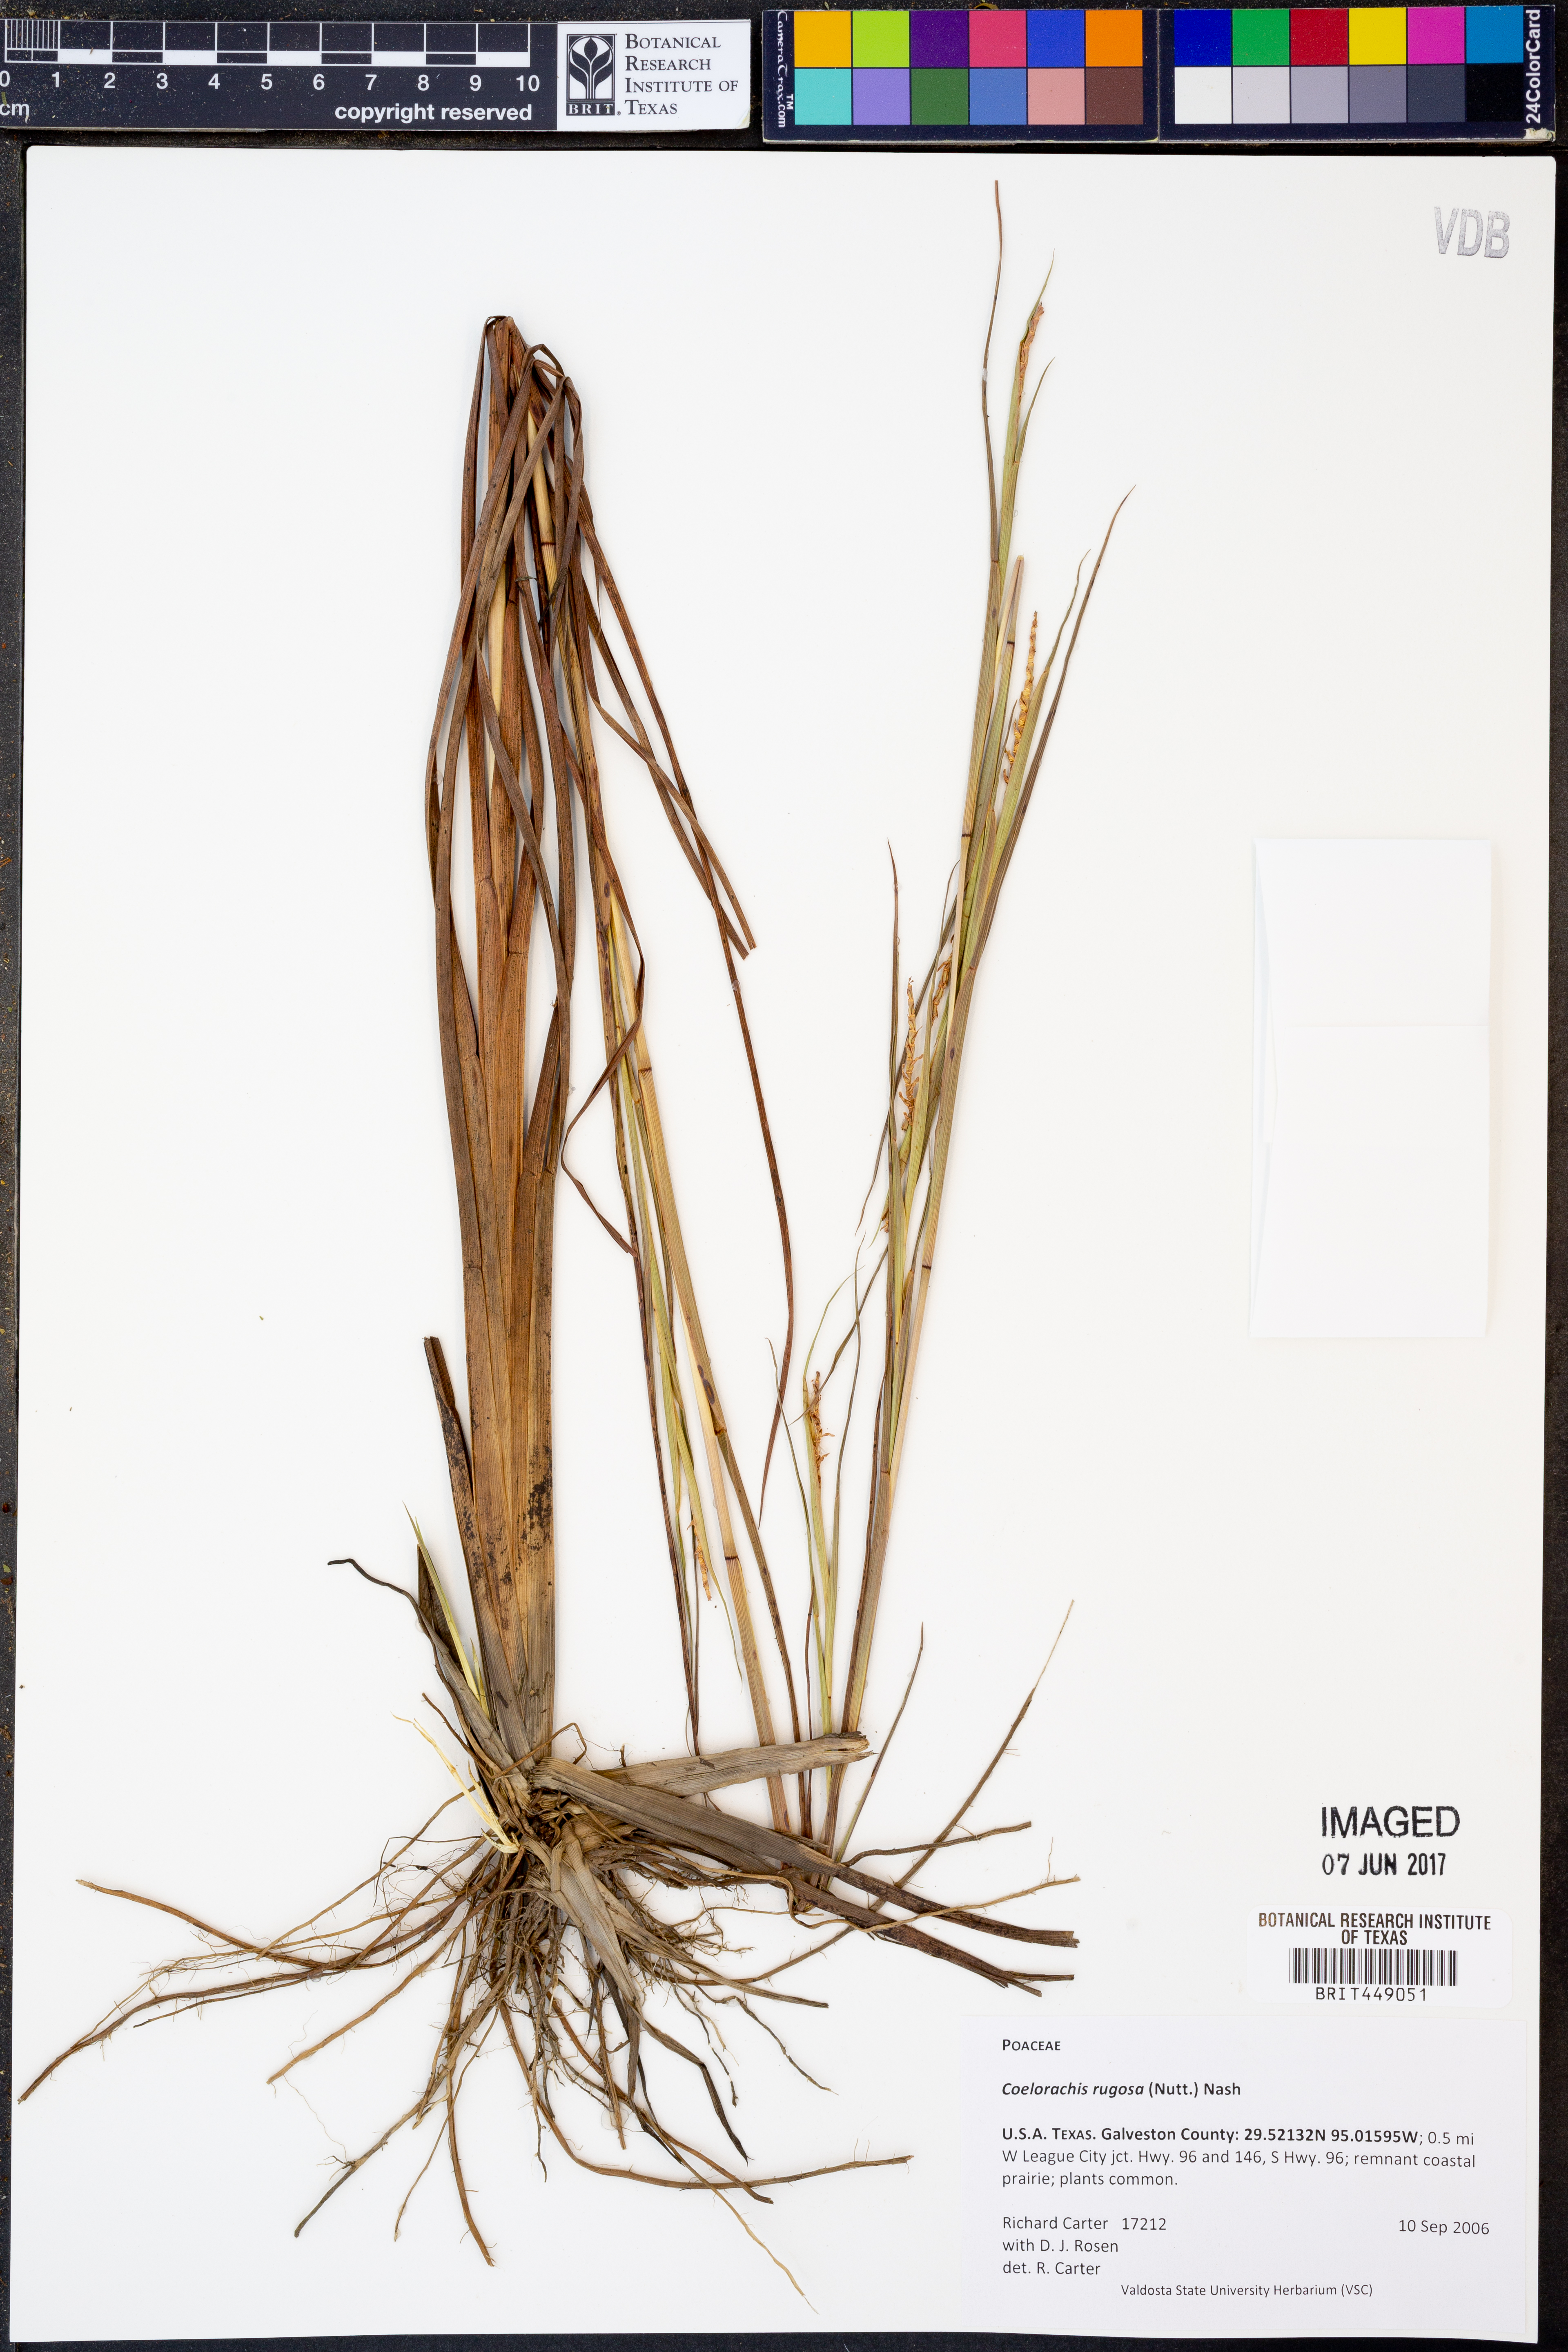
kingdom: Plantae
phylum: Tracheophyta
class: Liliopsida
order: Poales
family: Poaceae
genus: Rottboellia
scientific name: Rottboellia rugosa
